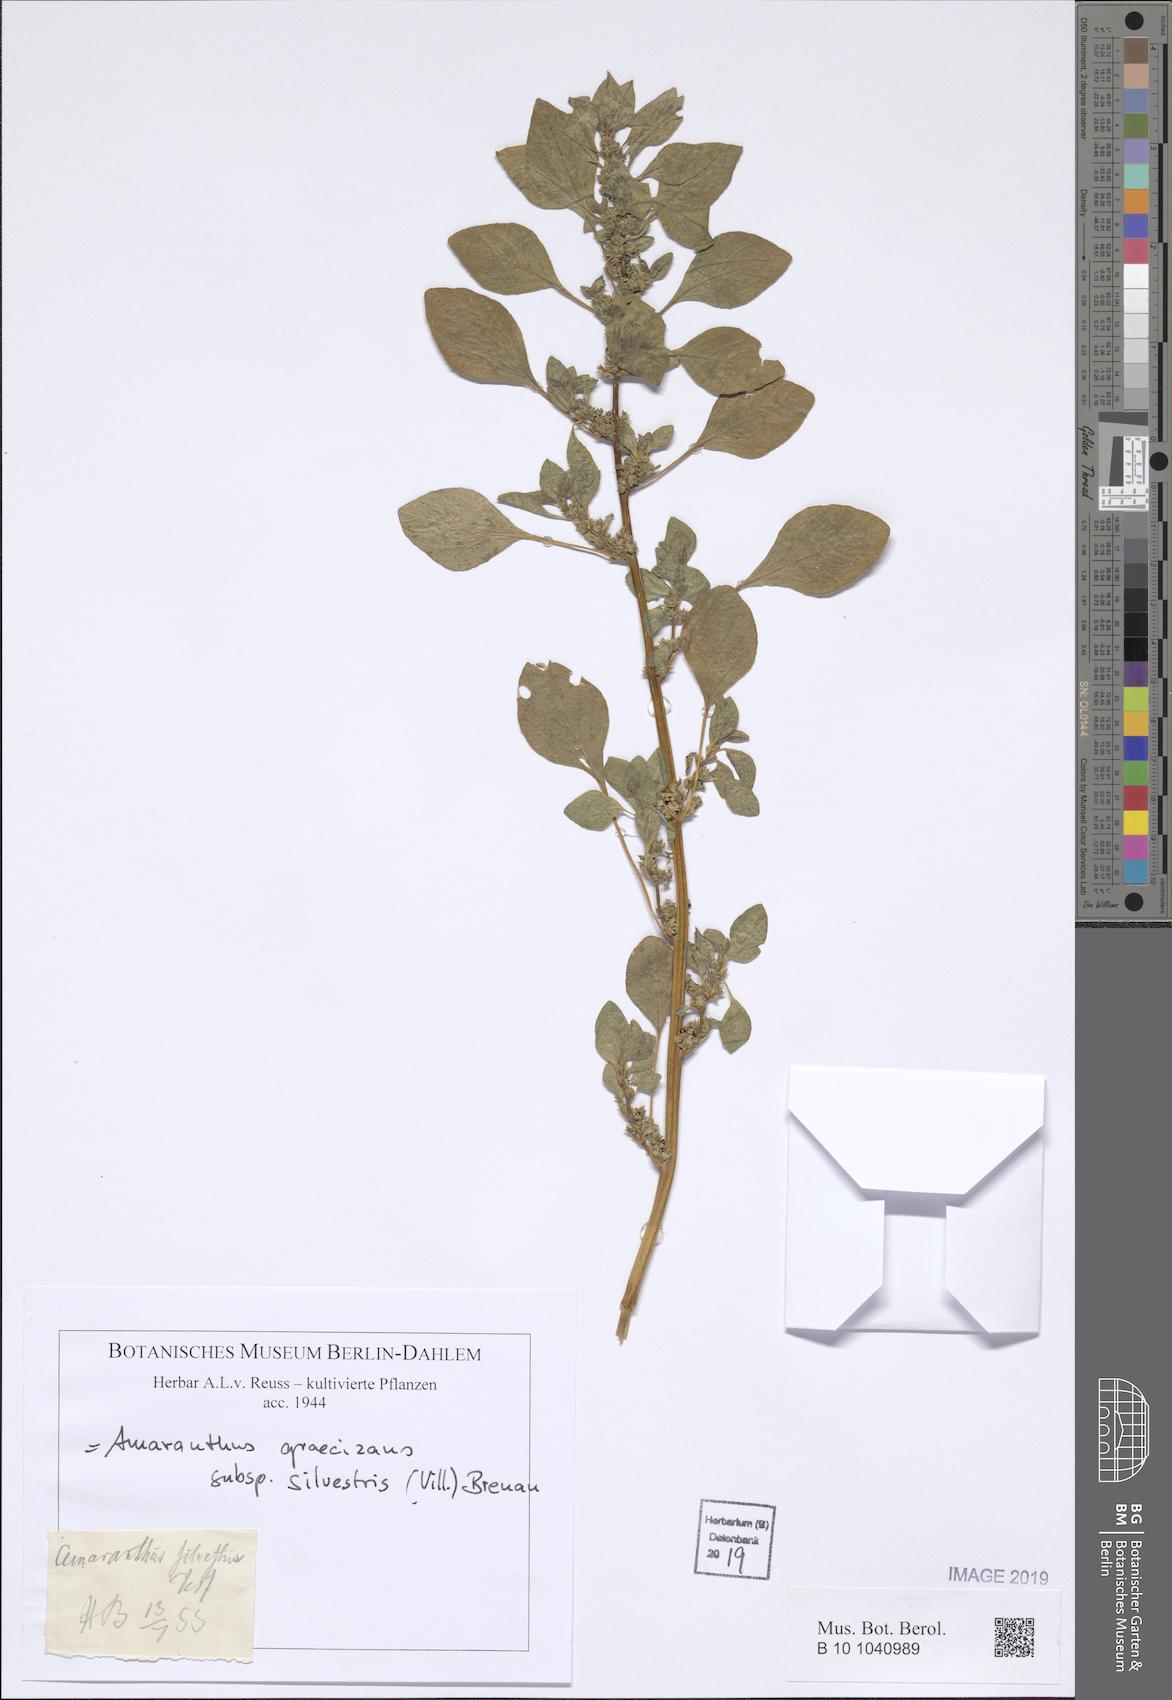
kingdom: Plantae
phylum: Tracheophyta
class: Magnoliopsida
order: Caryophyllales
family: Amaranthaceae
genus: Amaranthus
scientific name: Amaranthus graecizans
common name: Mediterranean amaranth
